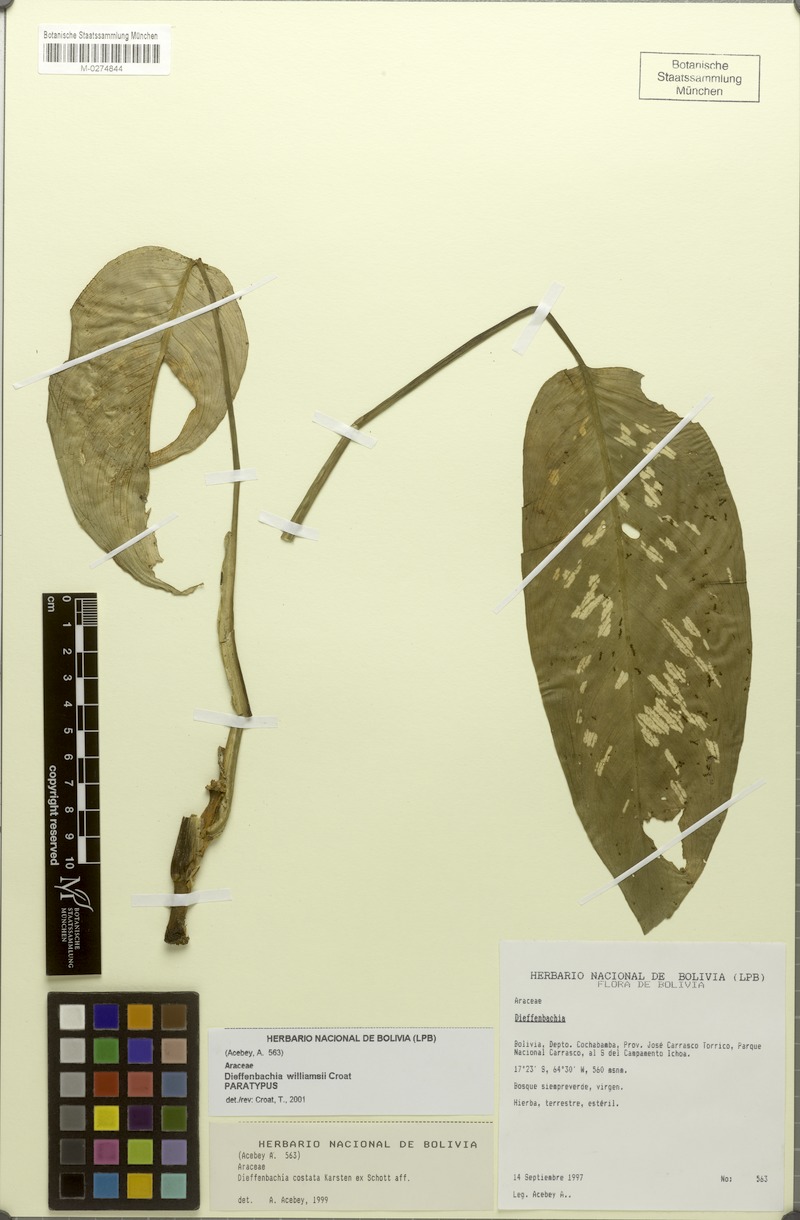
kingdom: Plantae
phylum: Tracheophyta
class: Liliopsida
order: Alismatales
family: Araceae
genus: Dieffenbachia
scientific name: Dieffenbachia williamsii
